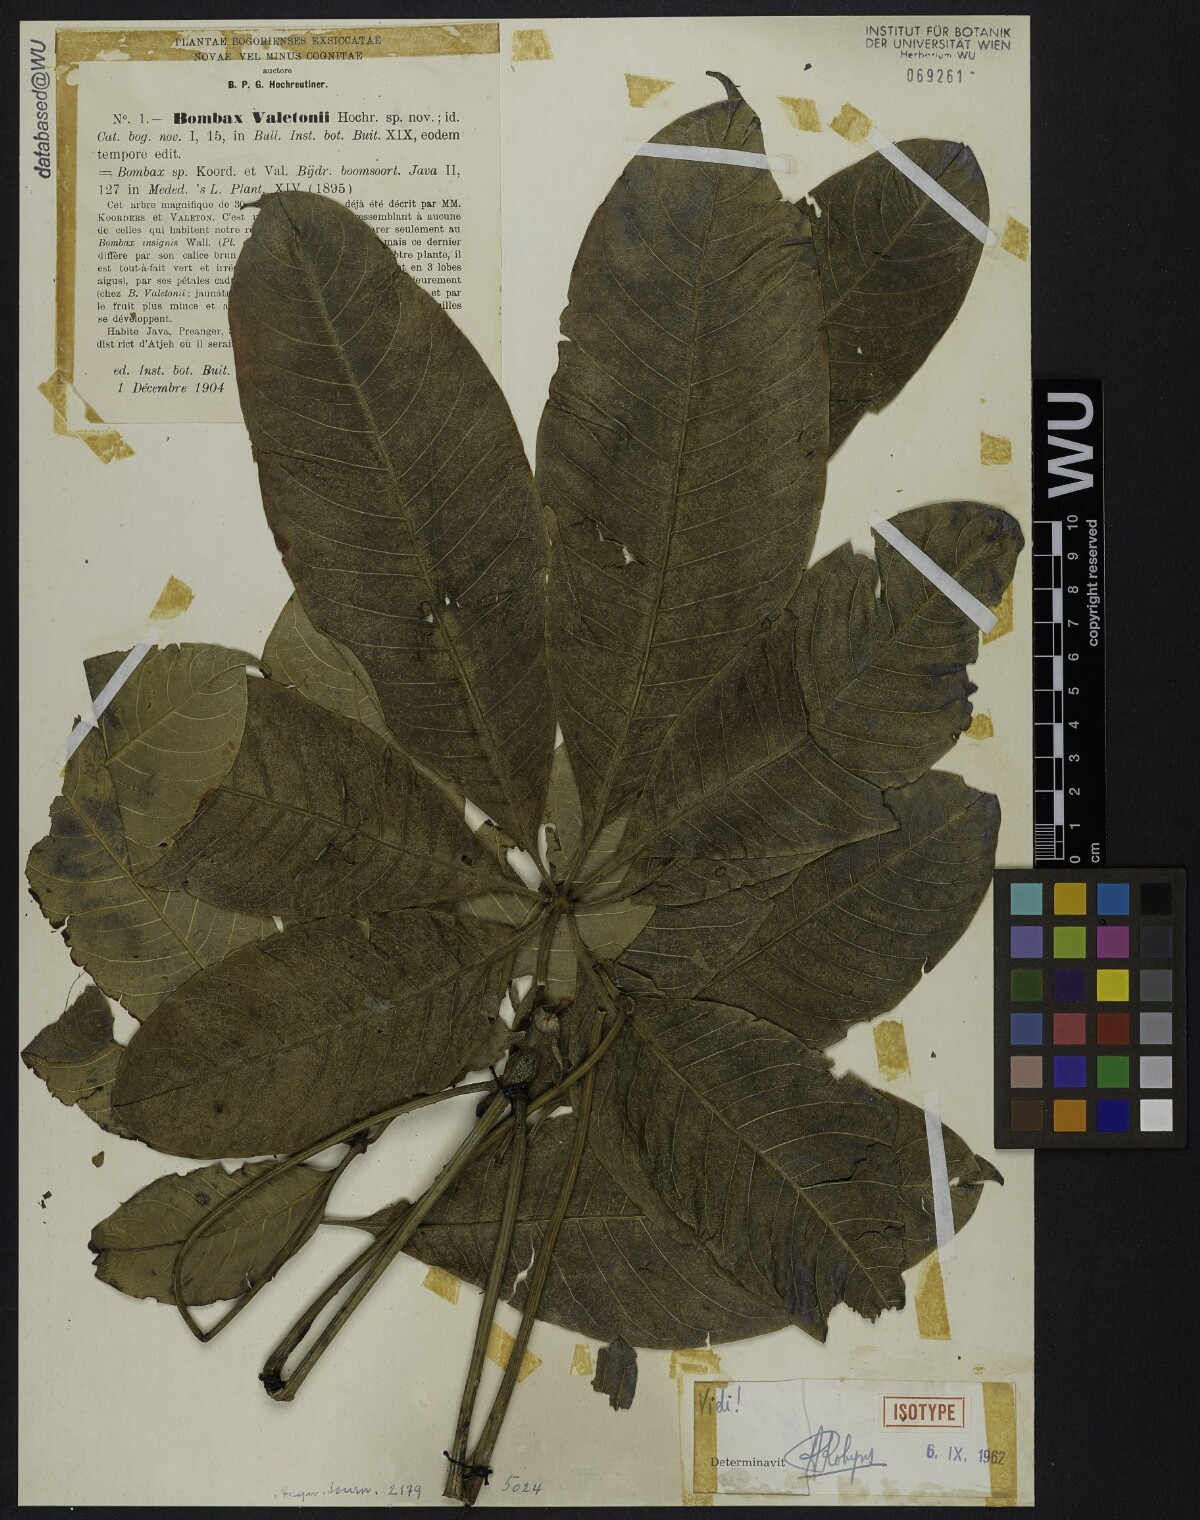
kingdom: Plantae
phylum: Tracheophyta
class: Magnoliopsida
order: Malvales
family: Malvaceae
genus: Bombax
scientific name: Bombax anceps
